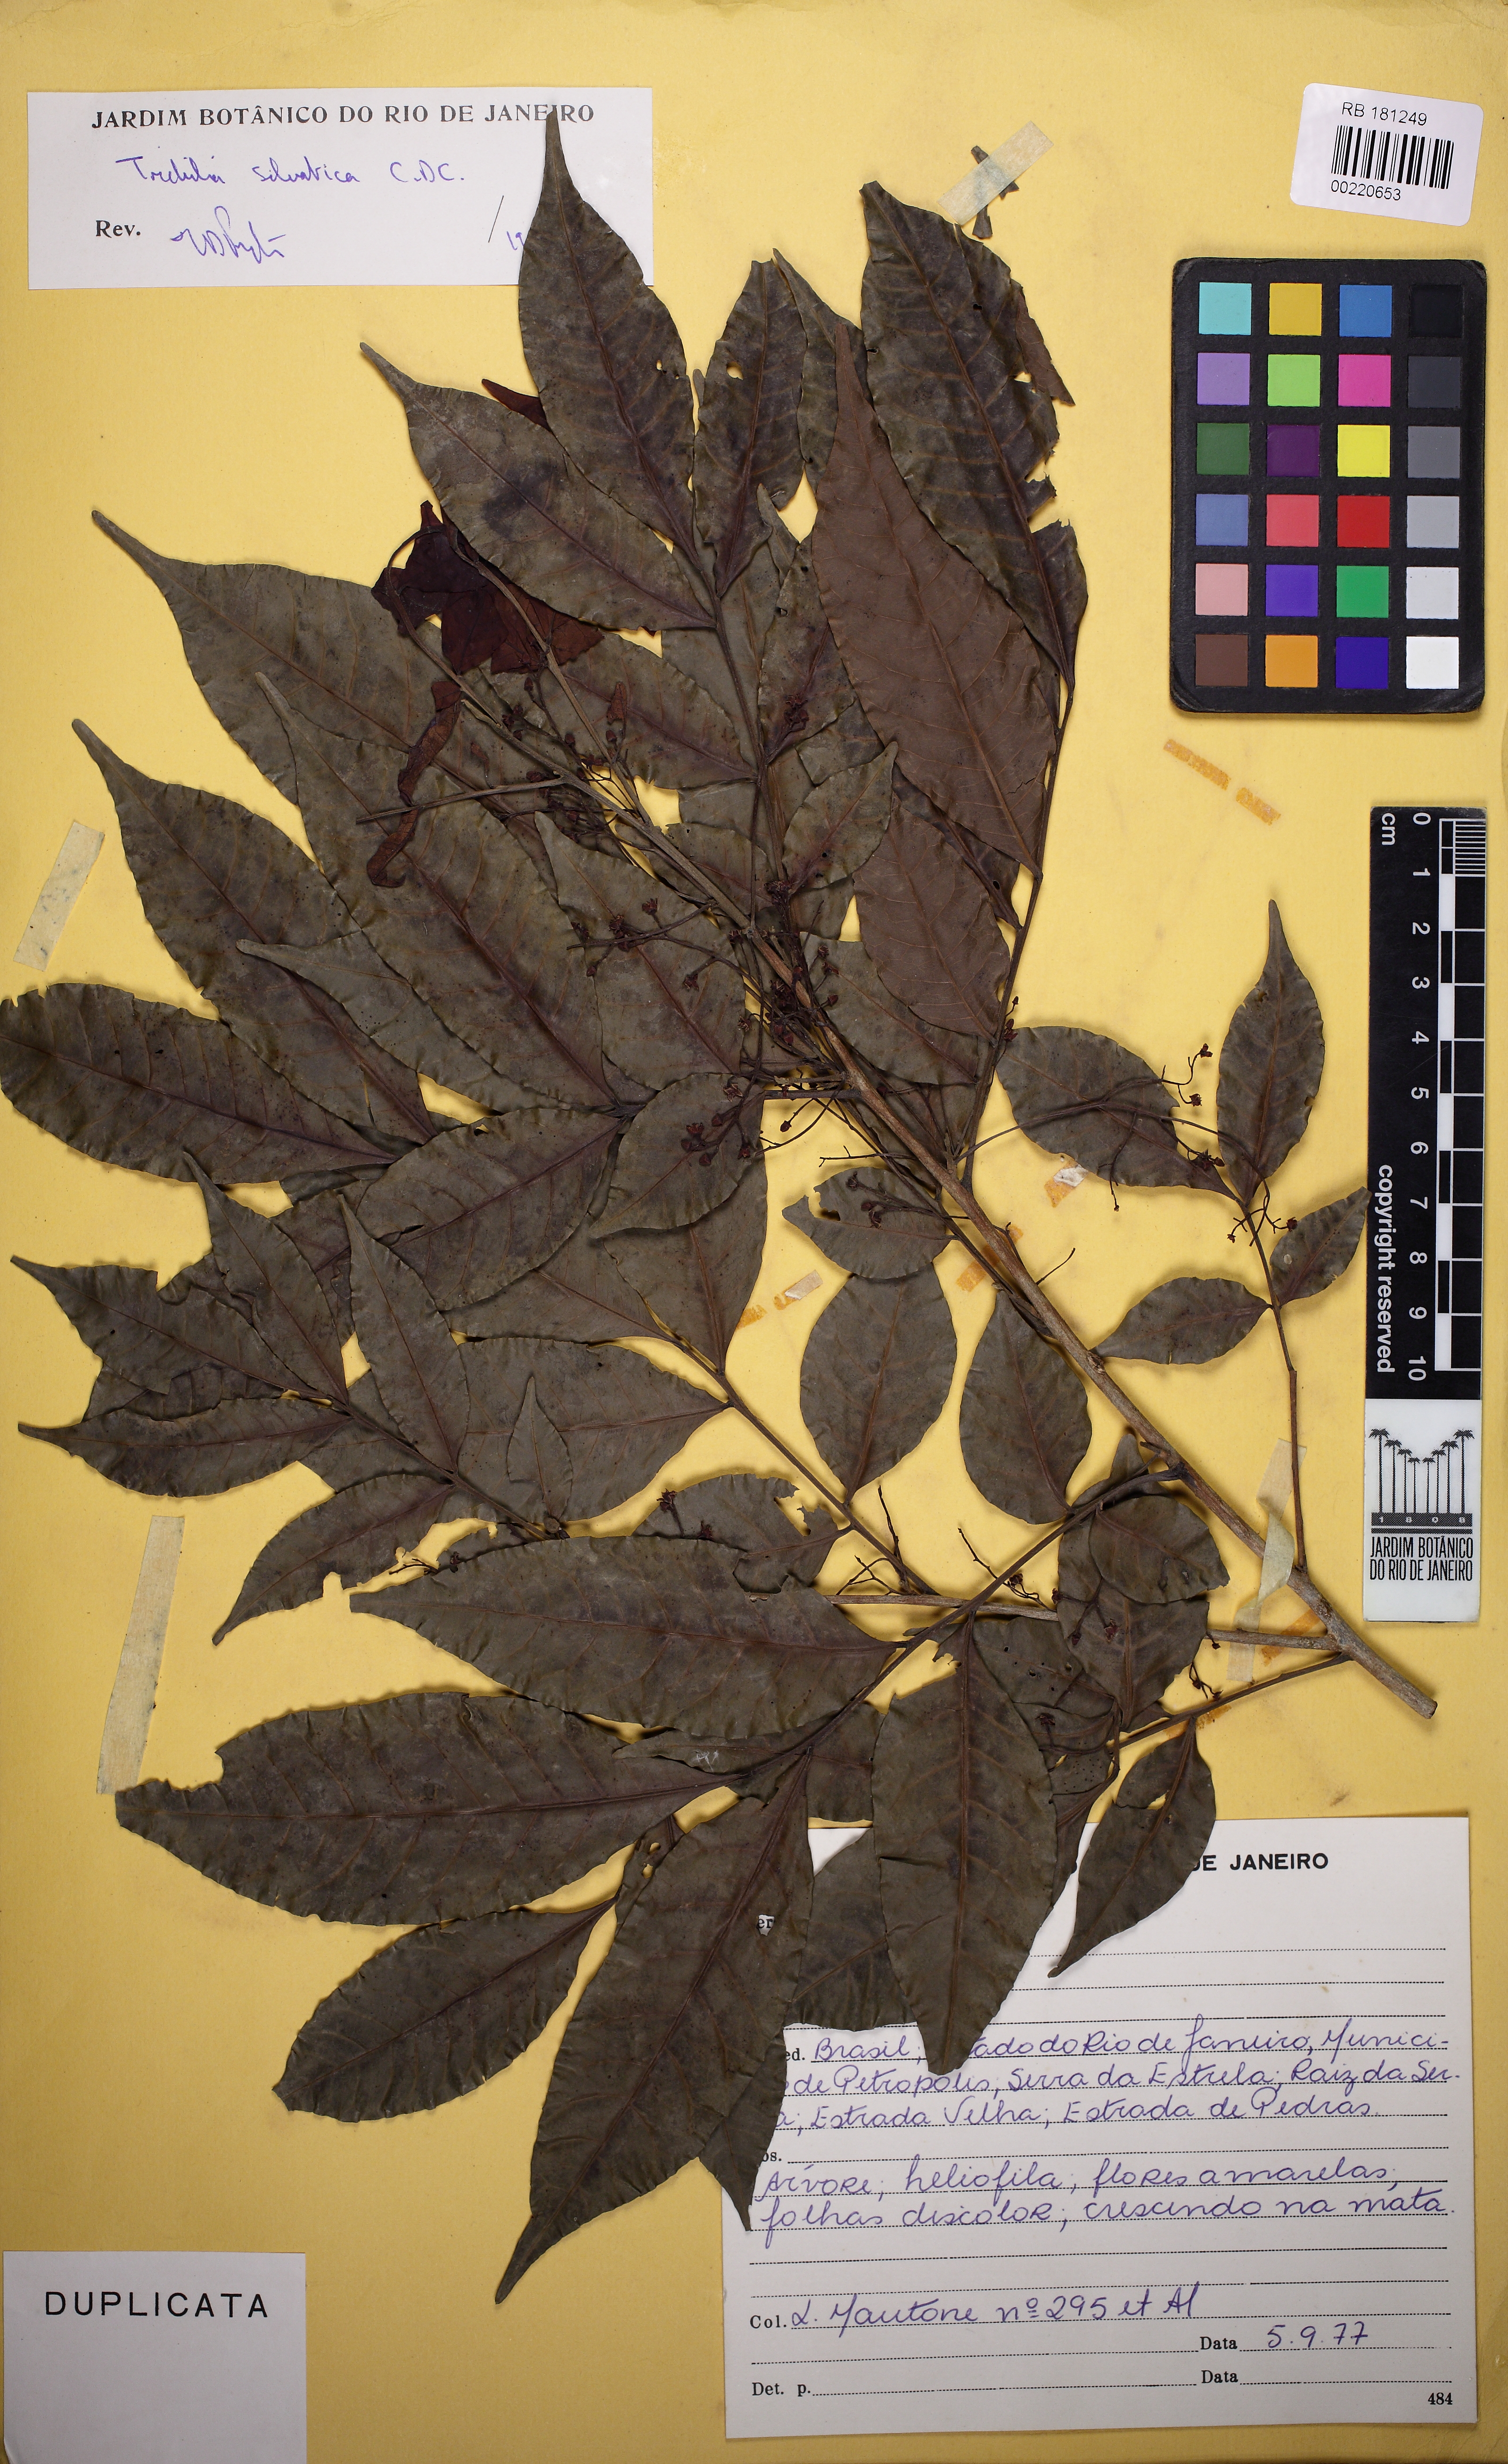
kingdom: Plantae
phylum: Tracheophyta
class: Magnoliopsida
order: Sapindales
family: Meliaceae
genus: Trichilia
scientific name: Trichilia silvatica
